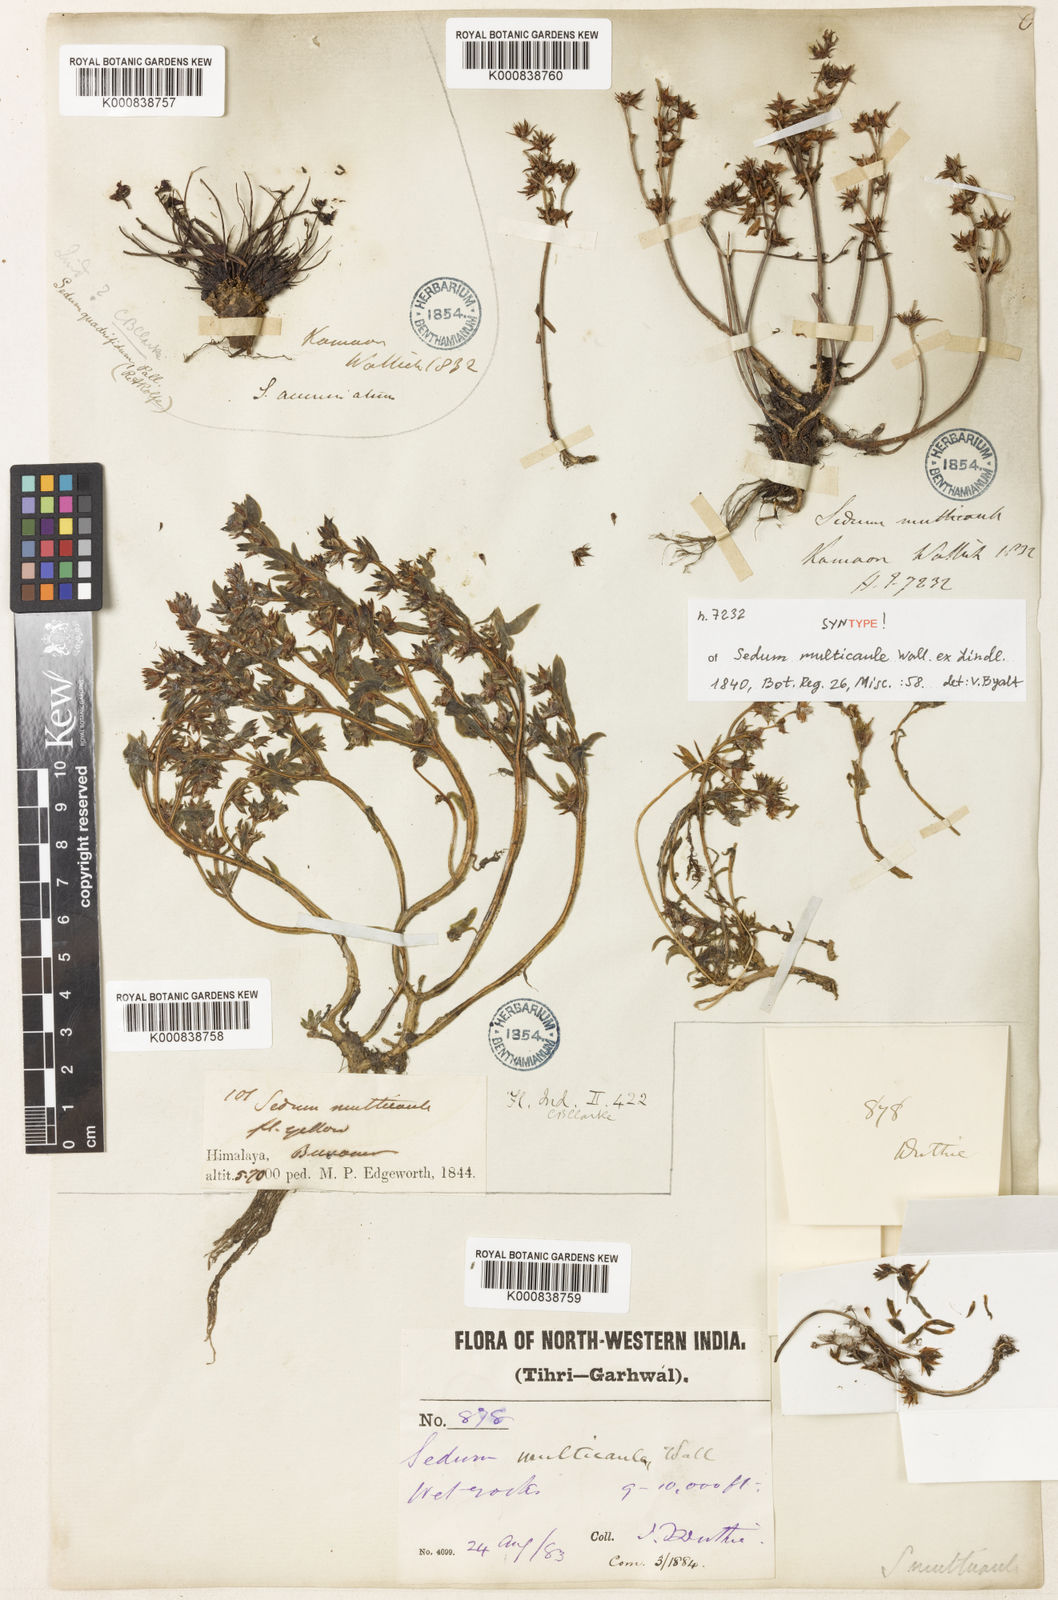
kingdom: Plantae
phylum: Tracheophyta
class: Magnoliopsida
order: Saxifragales
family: Crassulaceae
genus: Sedum
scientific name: Sedum multicaule
